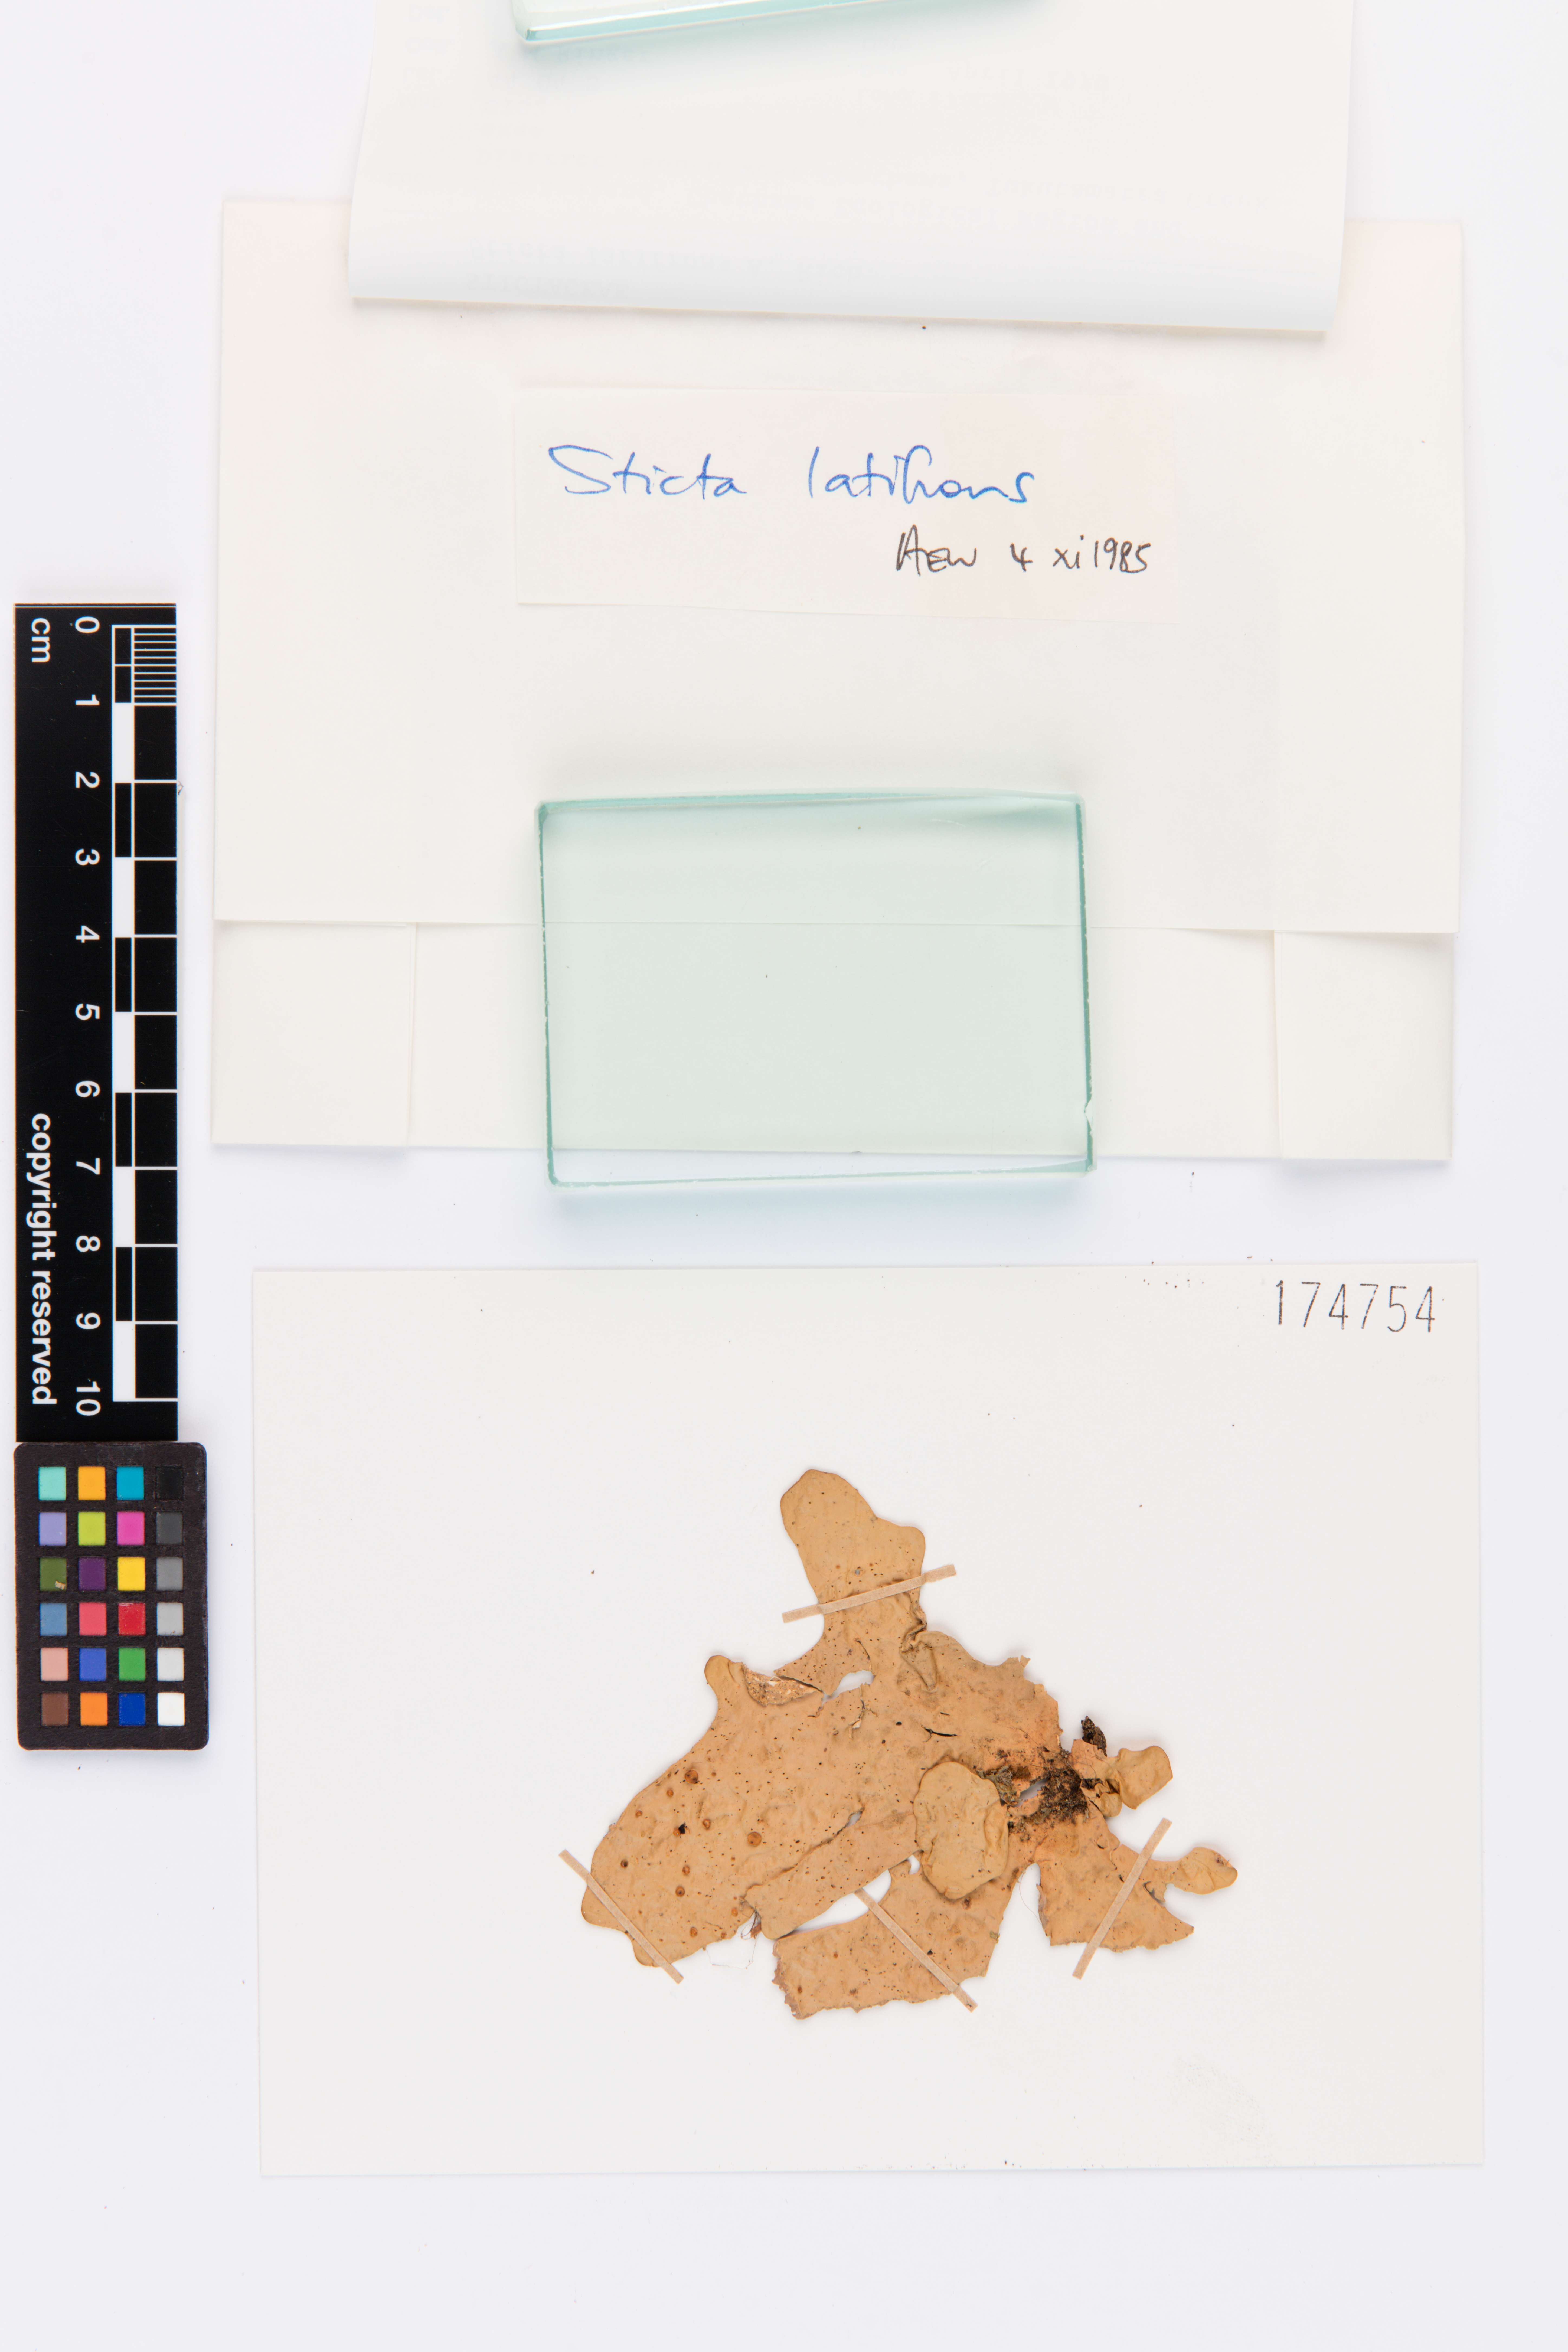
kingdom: Fungi
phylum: Ascomycota
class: Lecanoromycetes
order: Peltigerales
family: Lobariaceae
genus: Sticta
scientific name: Sticta latifrons
